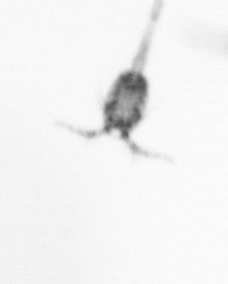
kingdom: Animalia
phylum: Arthropoda
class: Copepoda
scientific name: Copepoda
